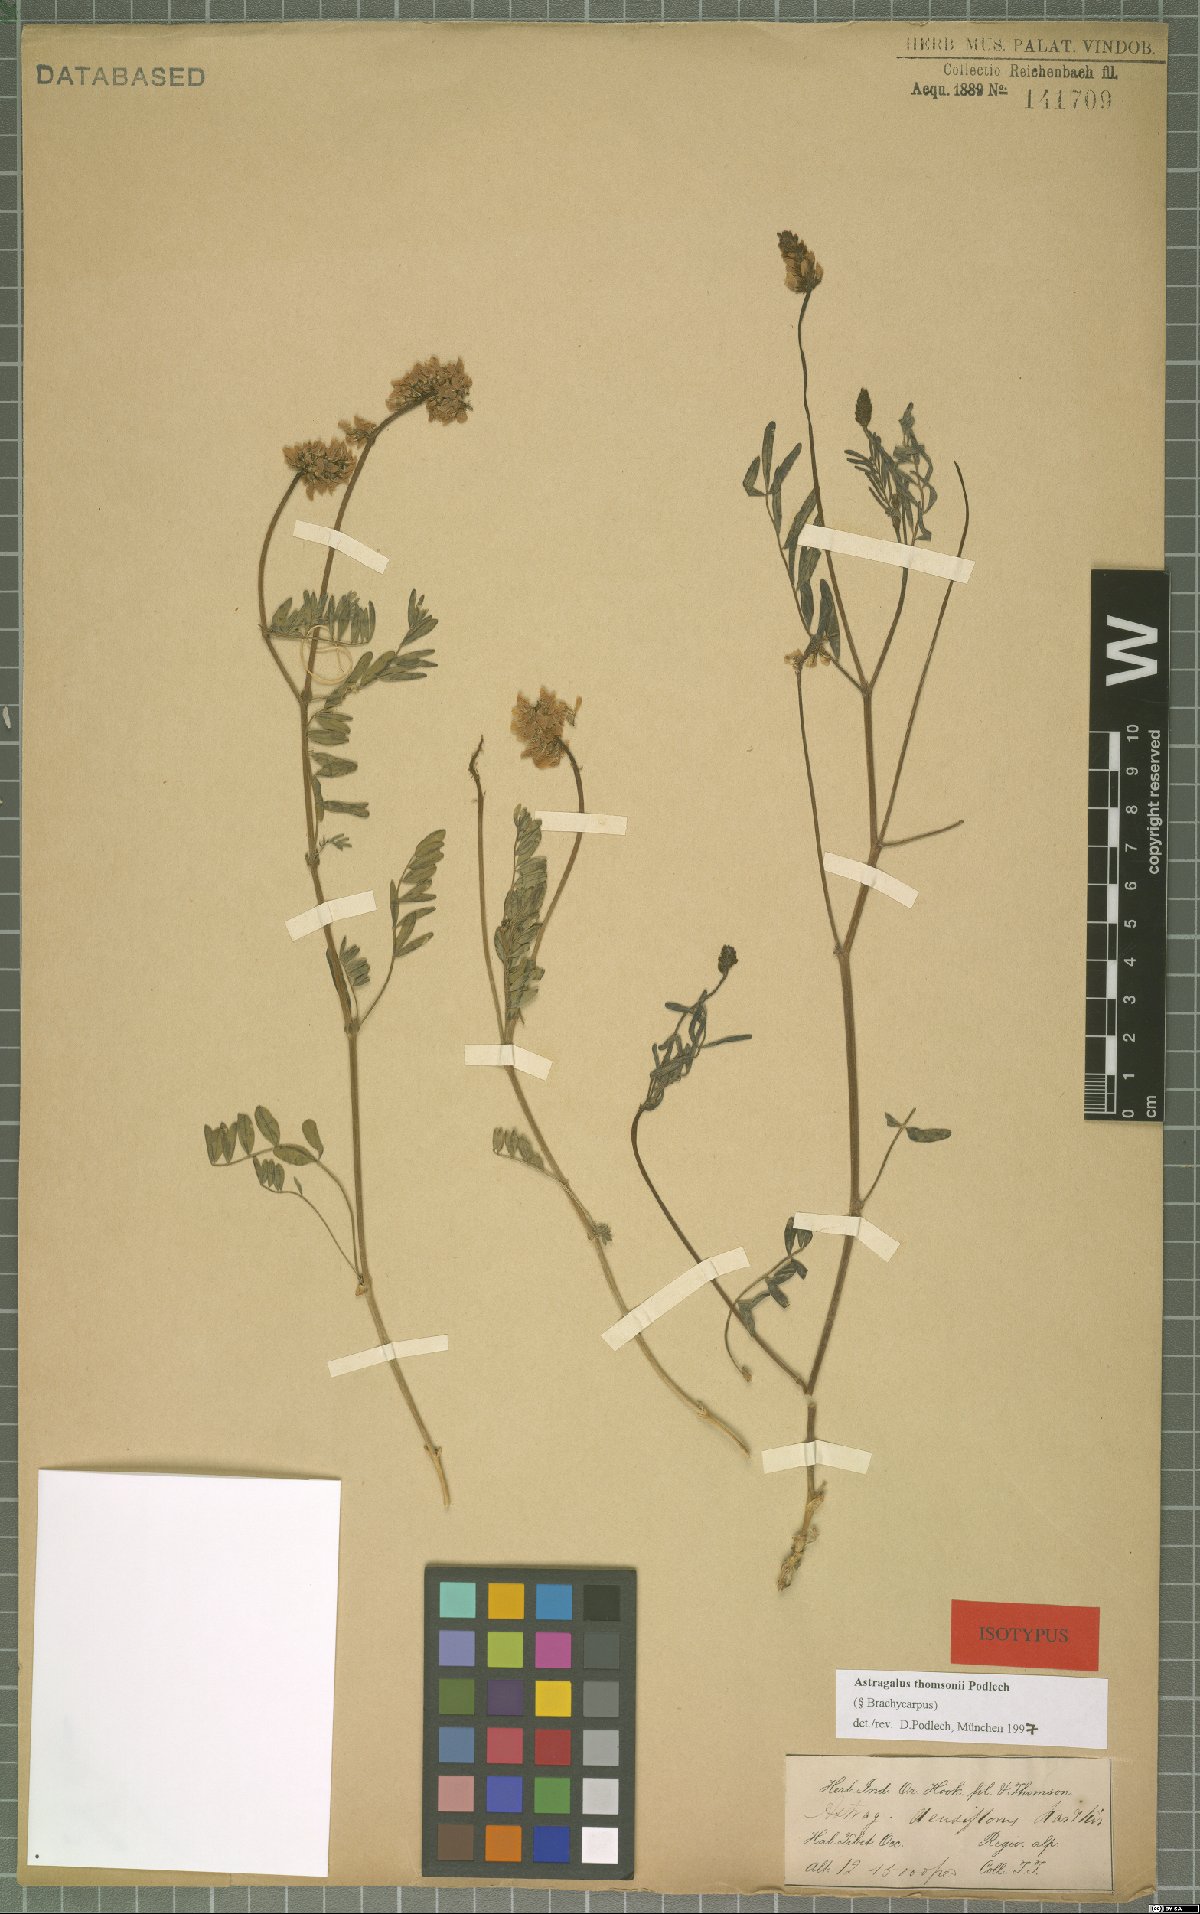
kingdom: Plantae
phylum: Tracheophyta
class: Magnoliopsida
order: Fabales
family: Fabaceae
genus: Astragalus
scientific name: Astragalus thomsonii
